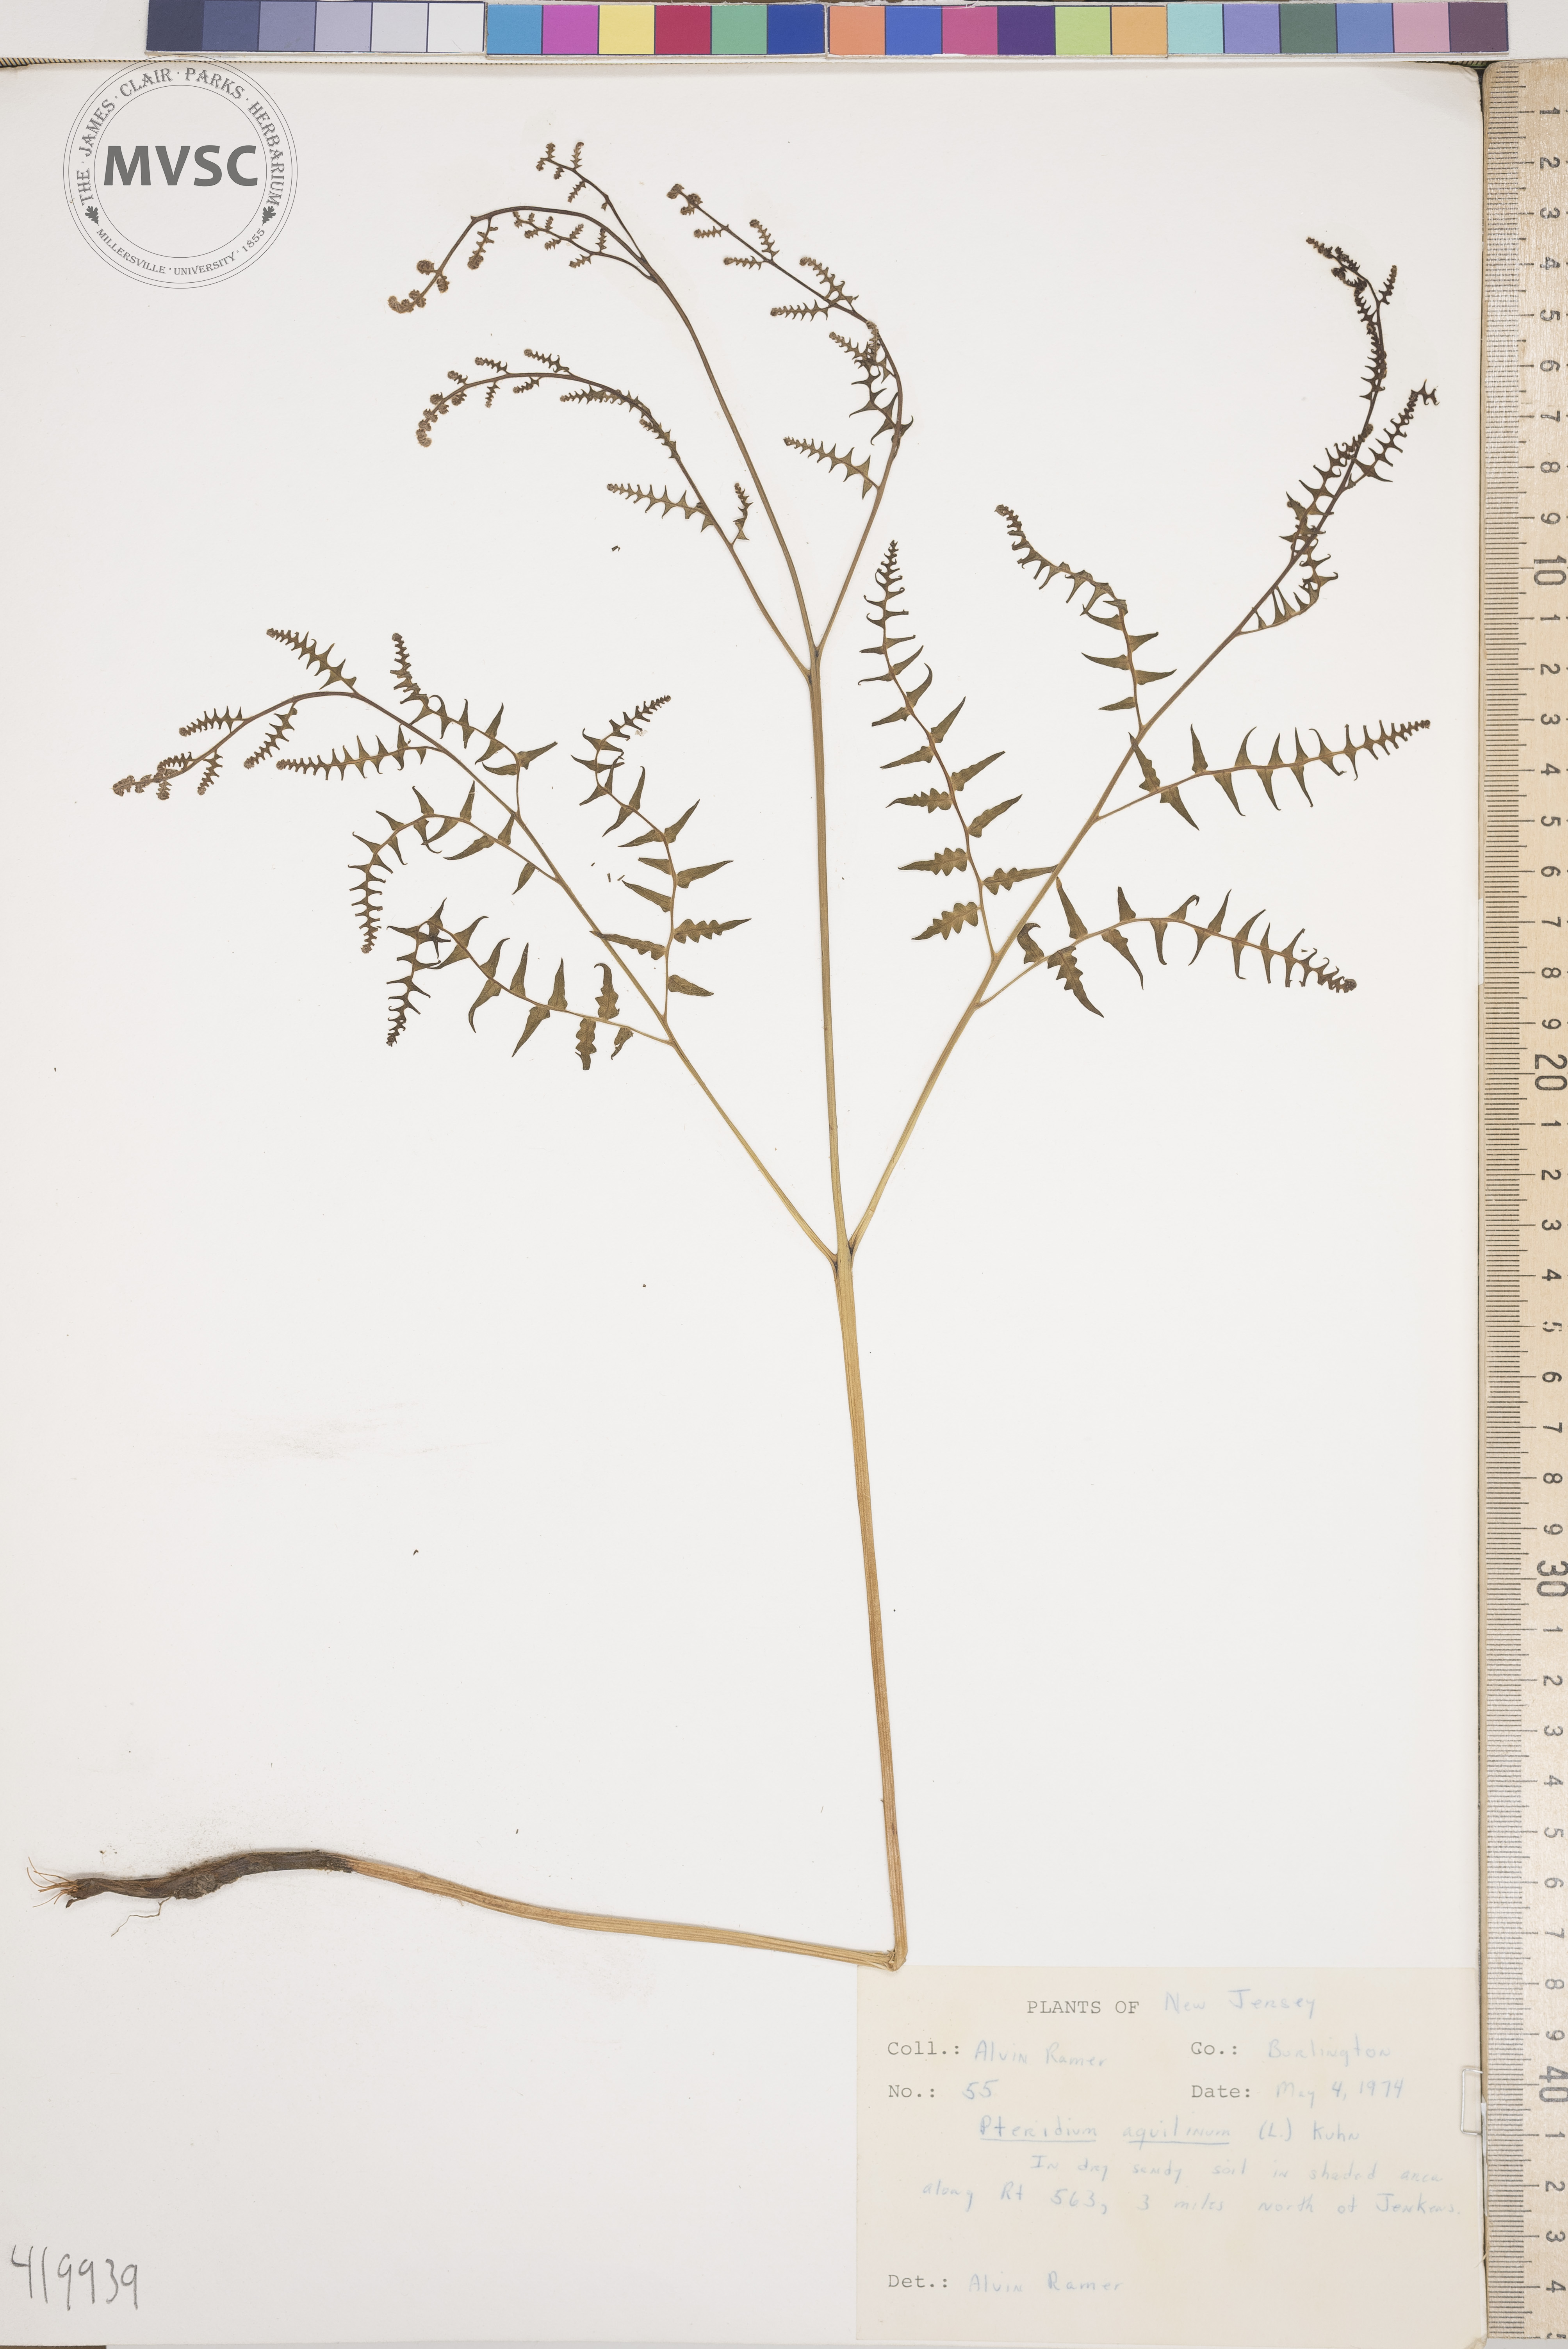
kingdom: Plantae
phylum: Tracheophyta
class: Polypodiopsida
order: Polypodiales
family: Dennstaedtiaceae
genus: Pteridium
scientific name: Pteridium aquilinum
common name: Bracken
